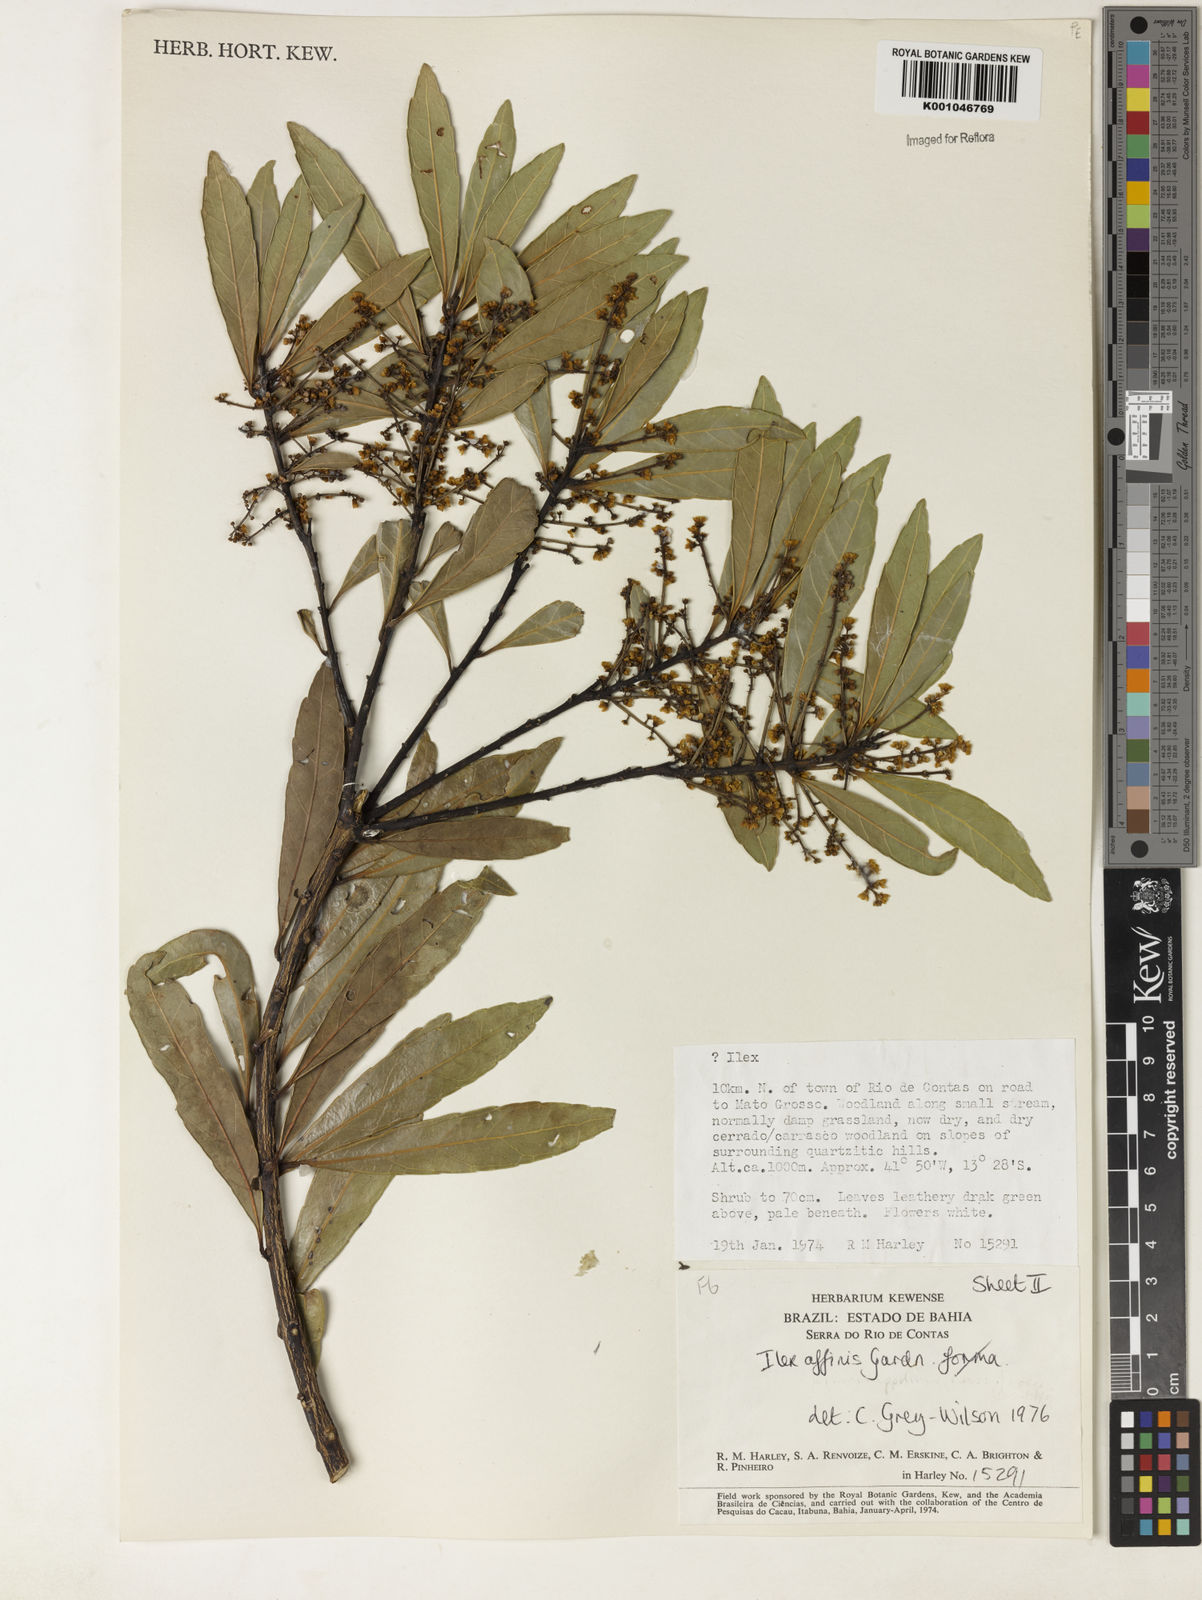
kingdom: Plantae
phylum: Tracheophyta
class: Magnoliopsida
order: Aquifoliales
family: Aquifoliaceae
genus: Ilex
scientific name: Ilex affinis
